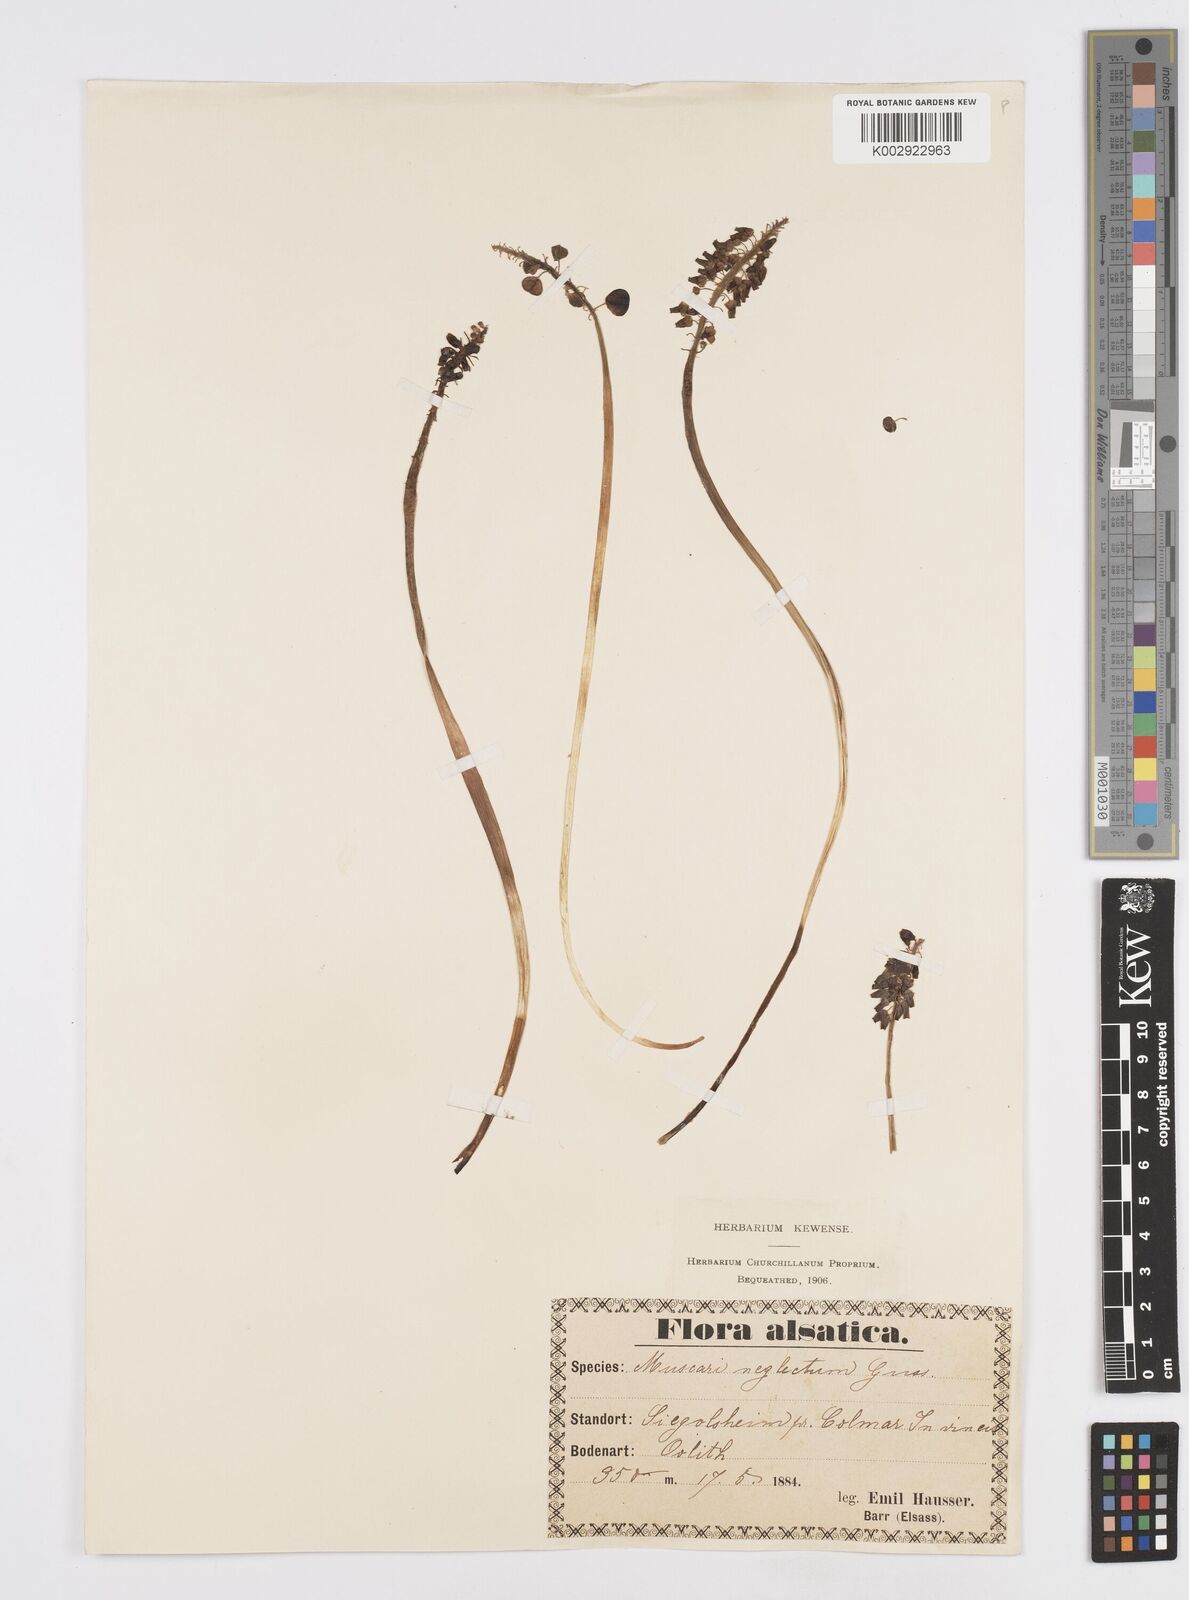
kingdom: Plantae
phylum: Tracheophyta
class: Liliopsida
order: Asparagales
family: Asparagaceae
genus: Muscari
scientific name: Muscari neglectum
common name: Grape-hyacinth
